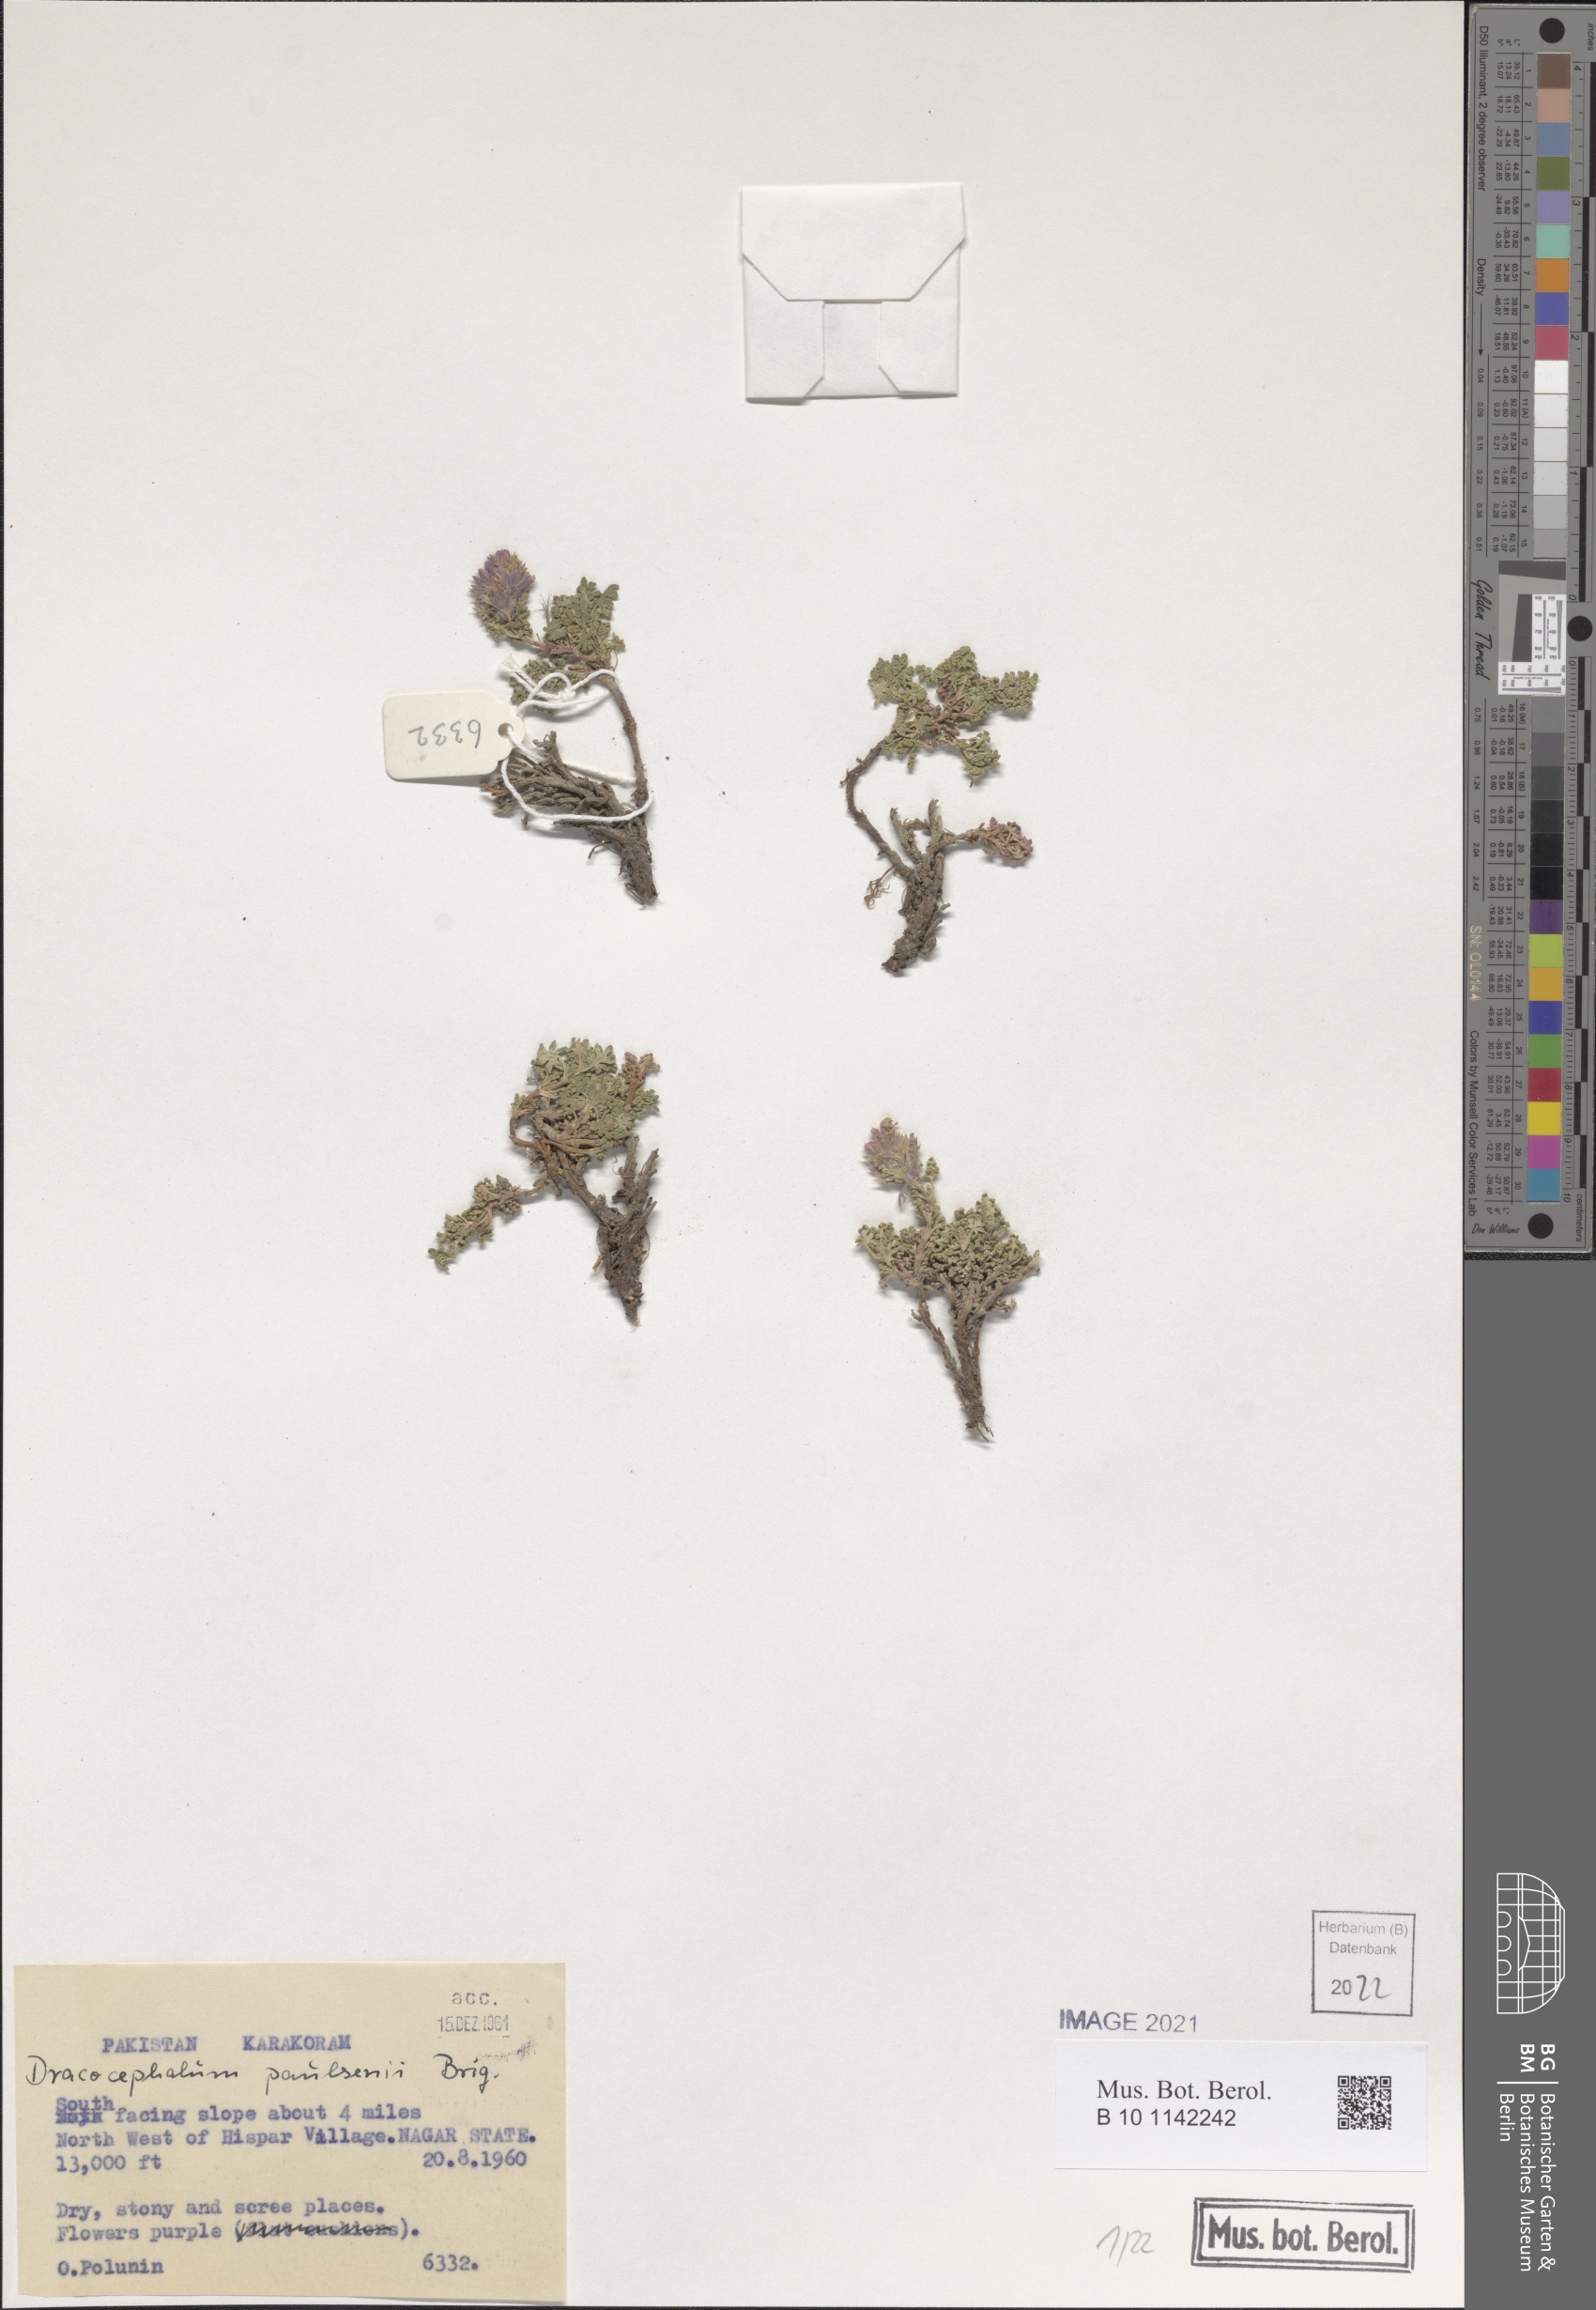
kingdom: Plantae
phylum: Tracheophyta
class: Magnoliopsida
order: Lamiales
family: Lamiaceae
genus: Dracocephalum
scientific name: Dracocephalum paulsenii
